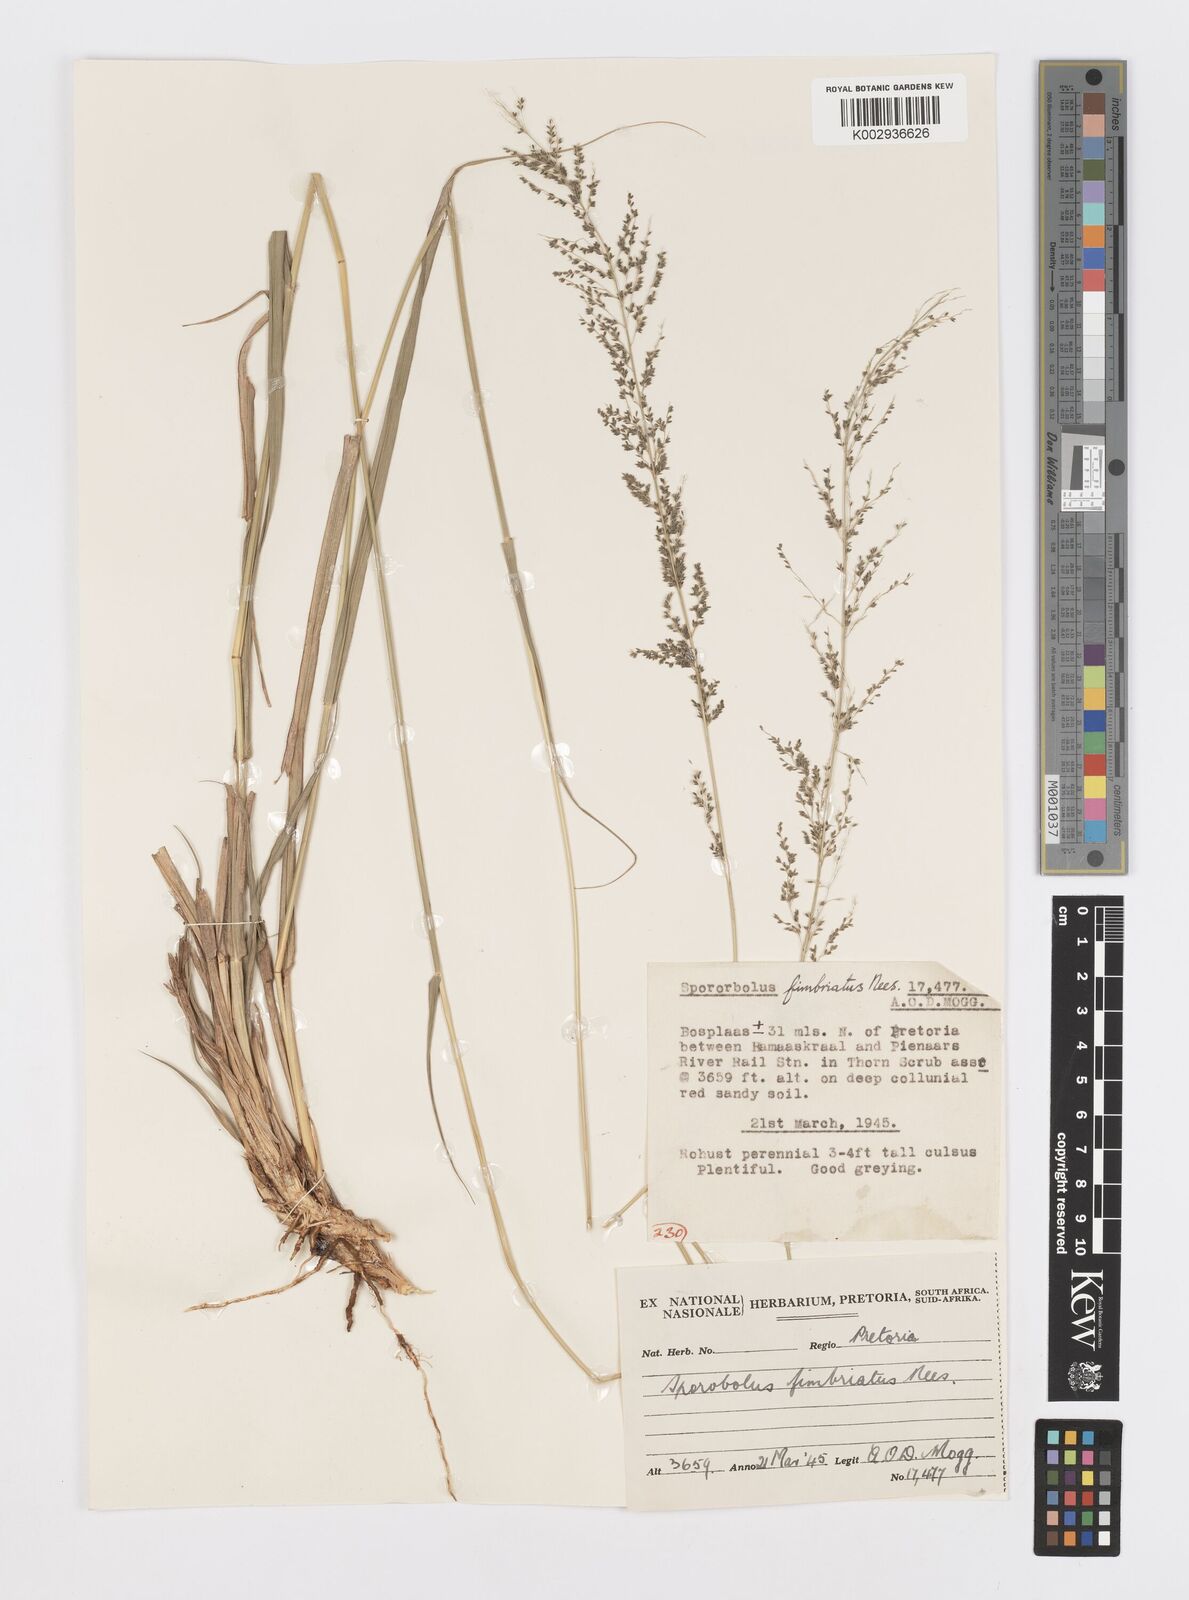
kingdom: Plantae
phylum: Tracheophyta
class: Liliopsida
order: Poales
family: Poaceae
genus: Sporobolus
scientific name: Sporobolus fimbriatus
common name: Fringed dropseed
